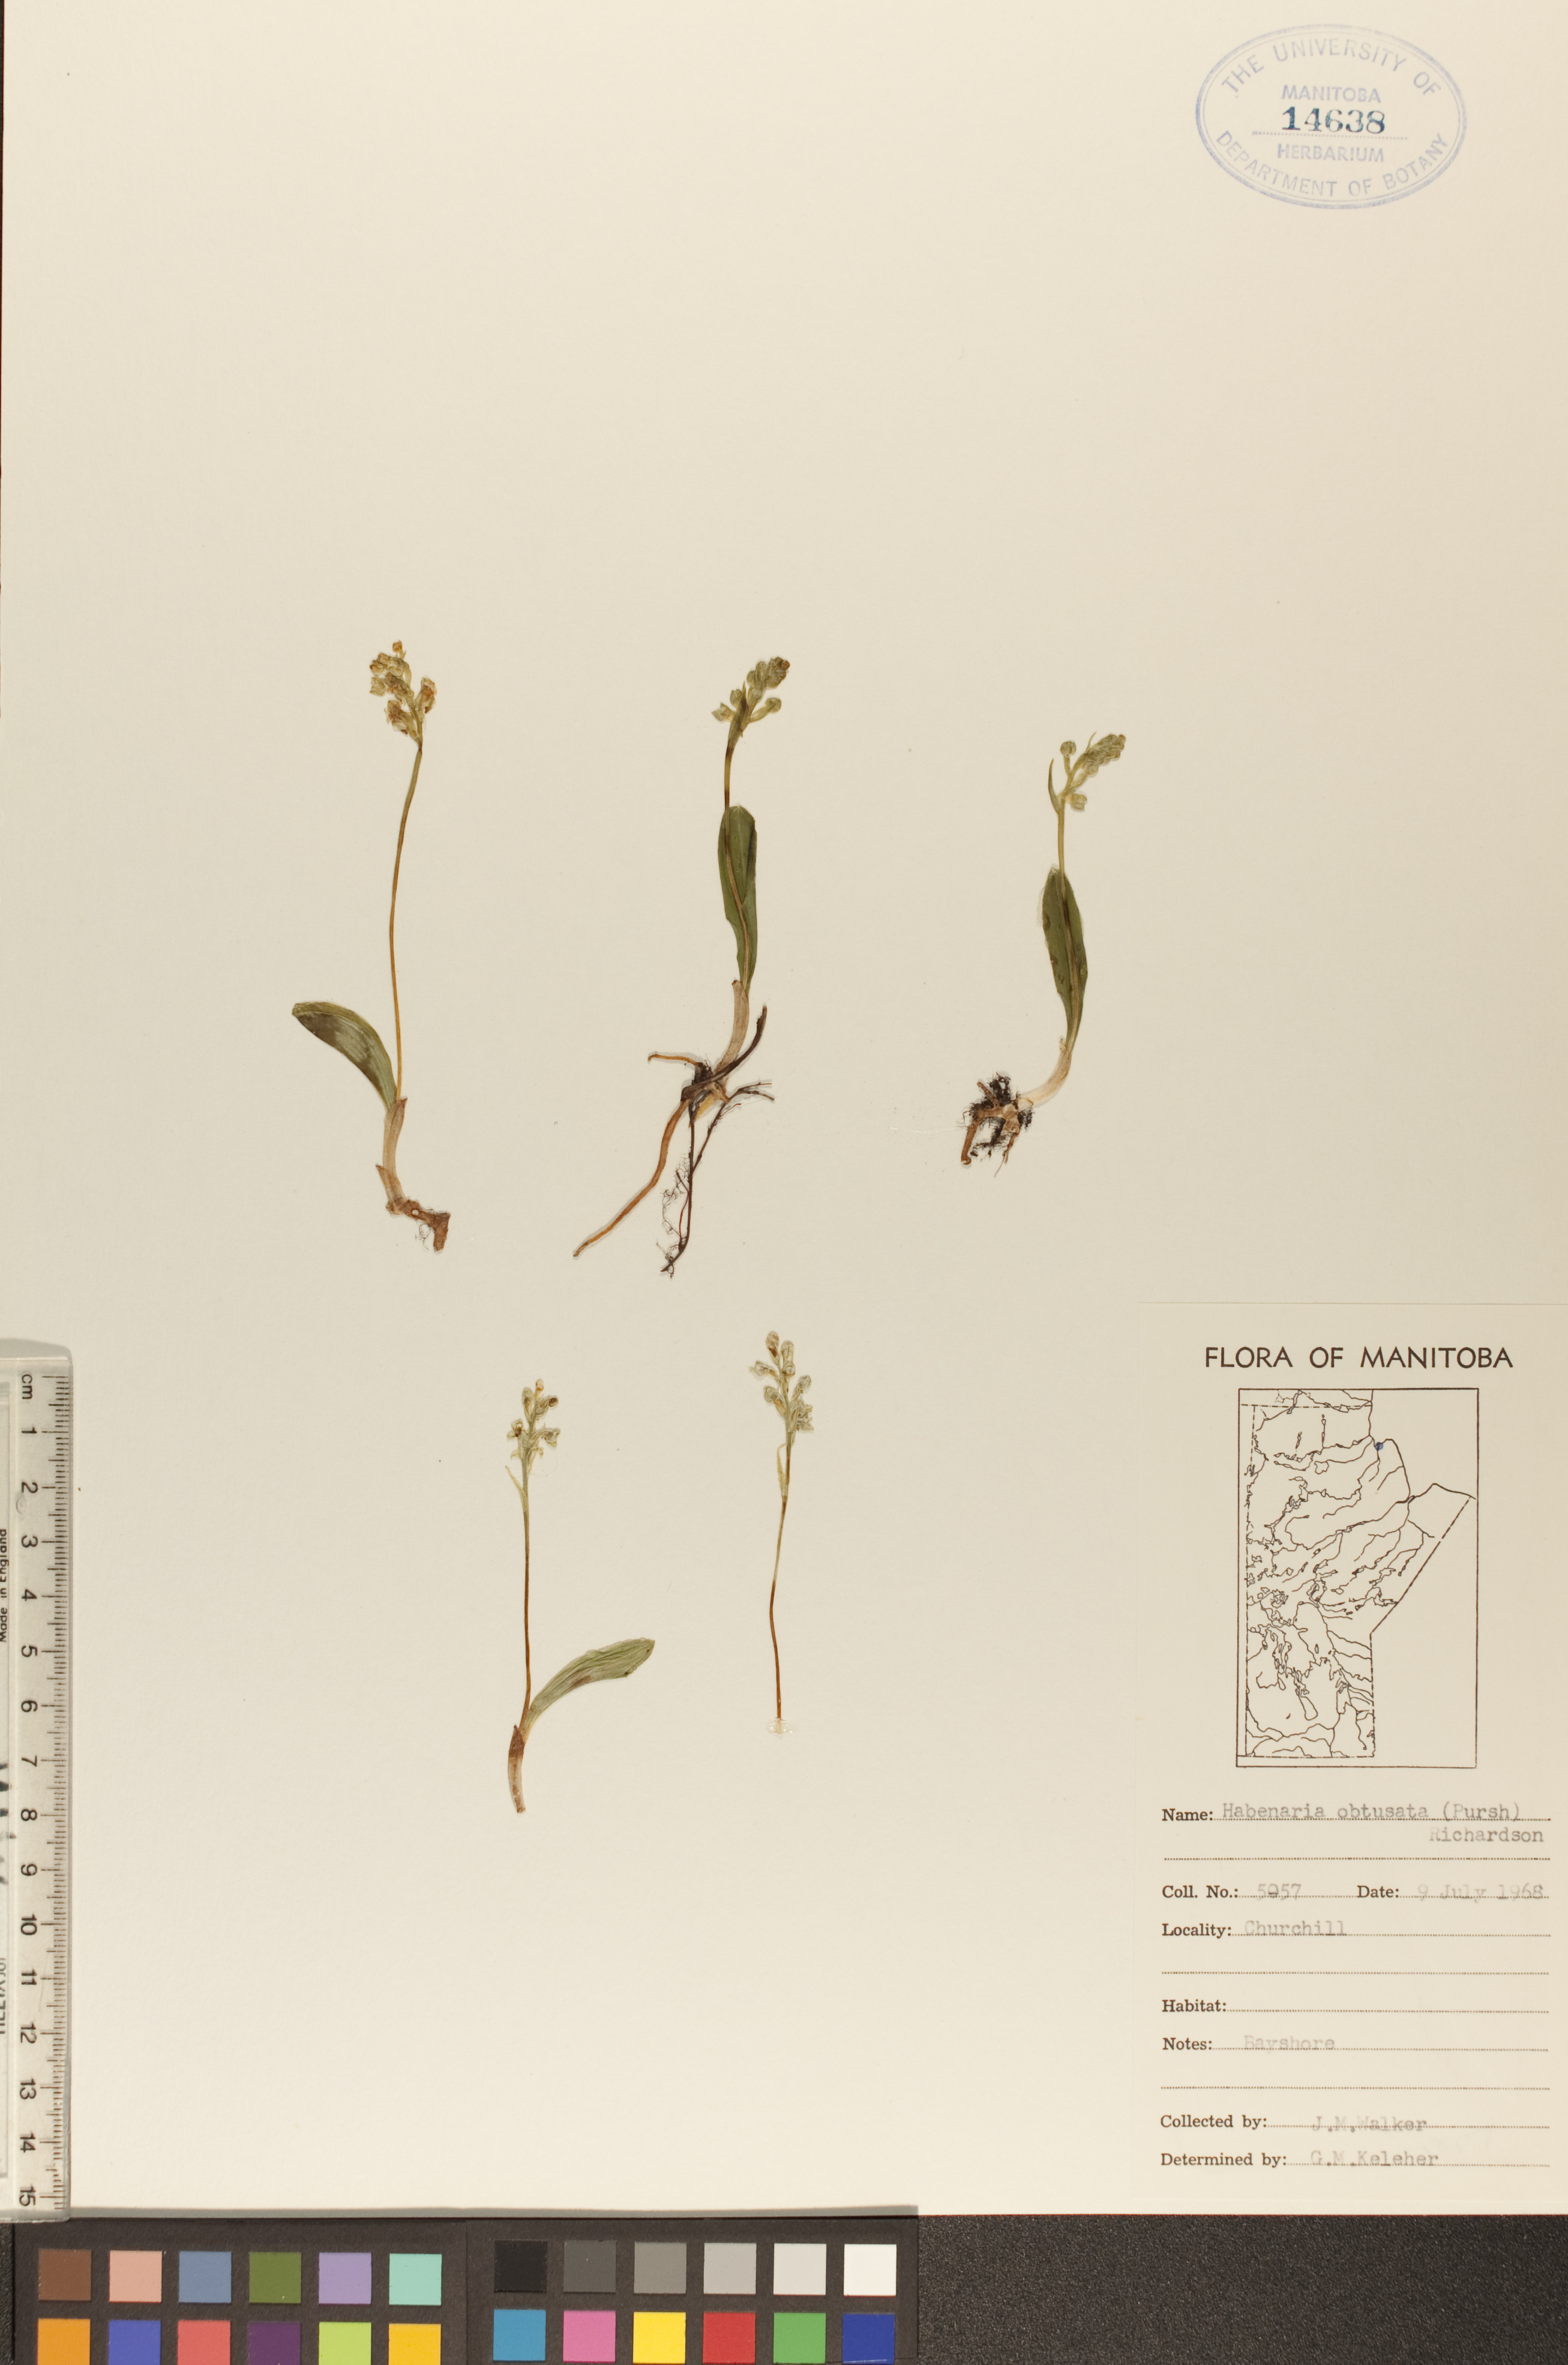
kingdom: Plantae
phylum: Tracheophyta
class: Liliopsida
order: Asparagales
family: Orchidaceae
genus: Platanthera
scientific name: Platanthera obtusata
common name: Blunt bog orchid
